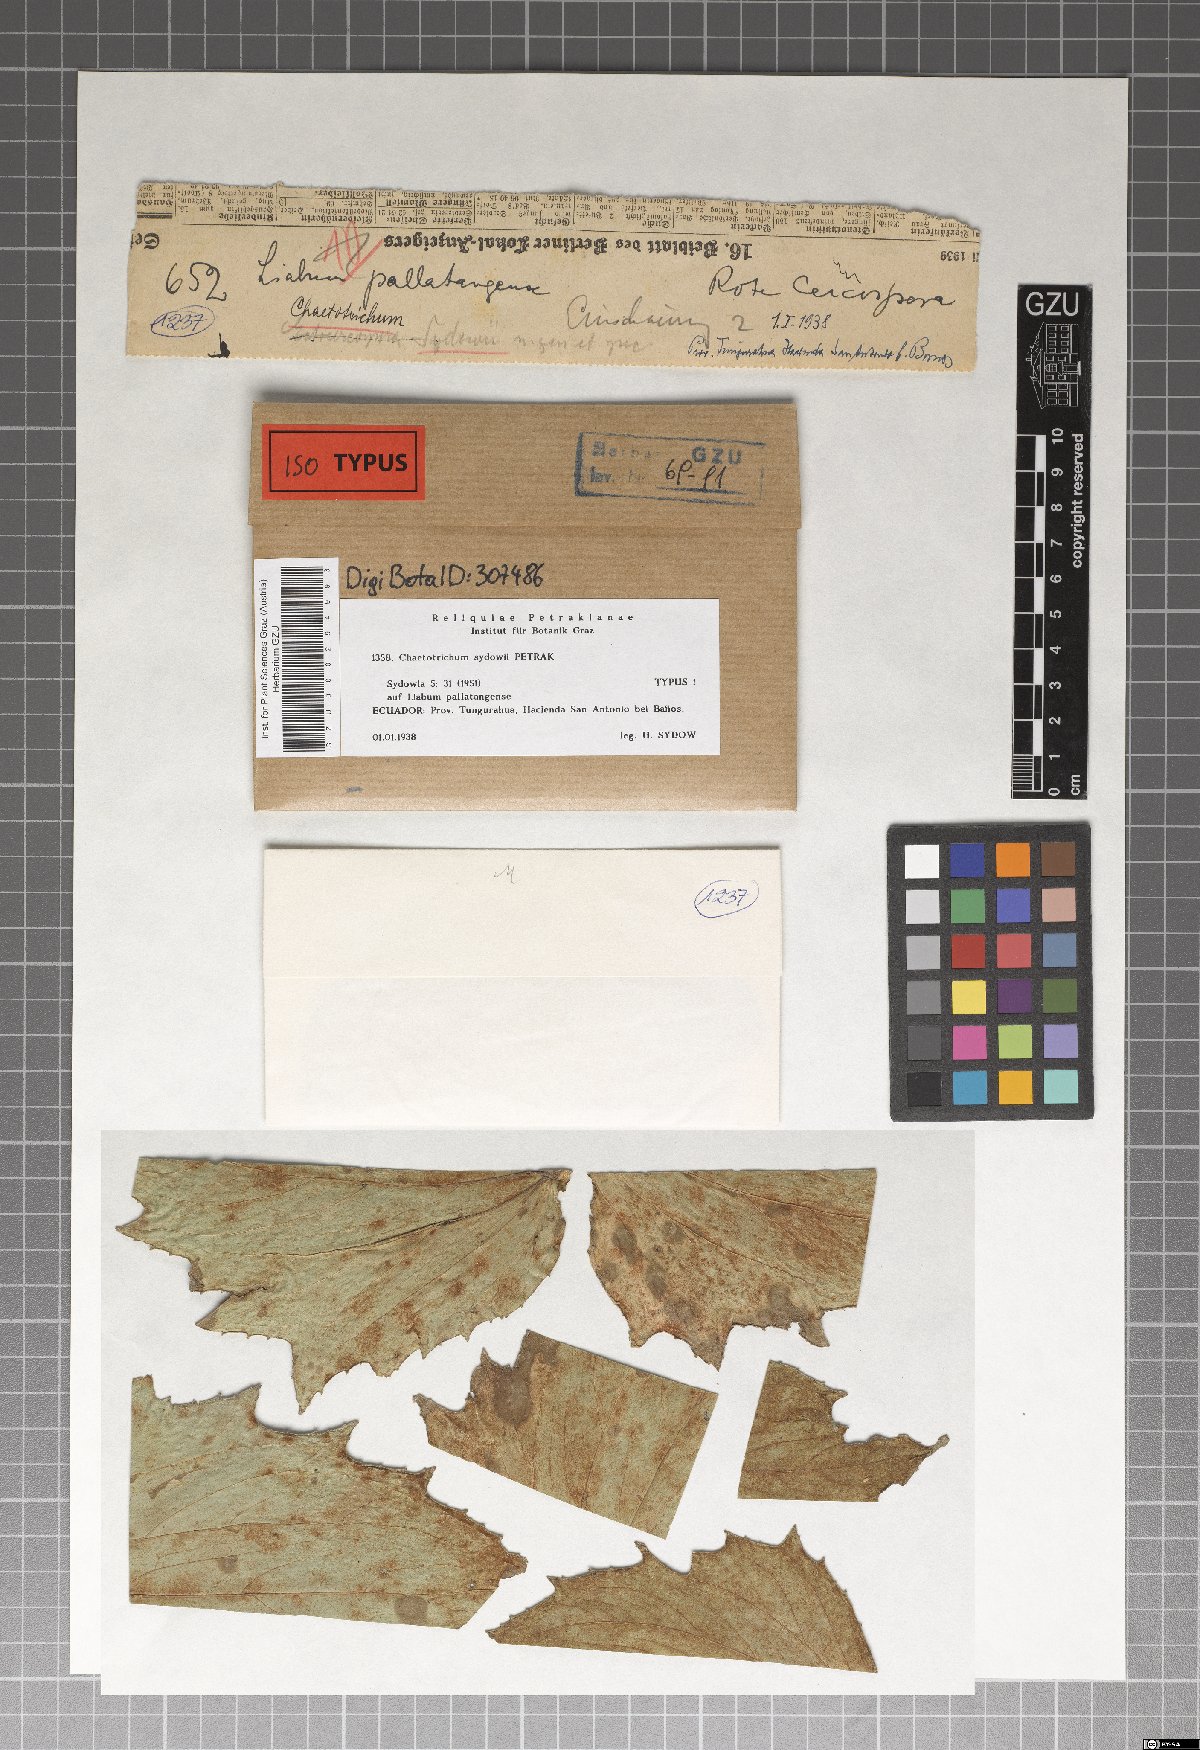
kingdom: Fungi
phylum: Ascomycota
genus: Chaetotrichum
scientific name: Chaetotrichum sydowii
